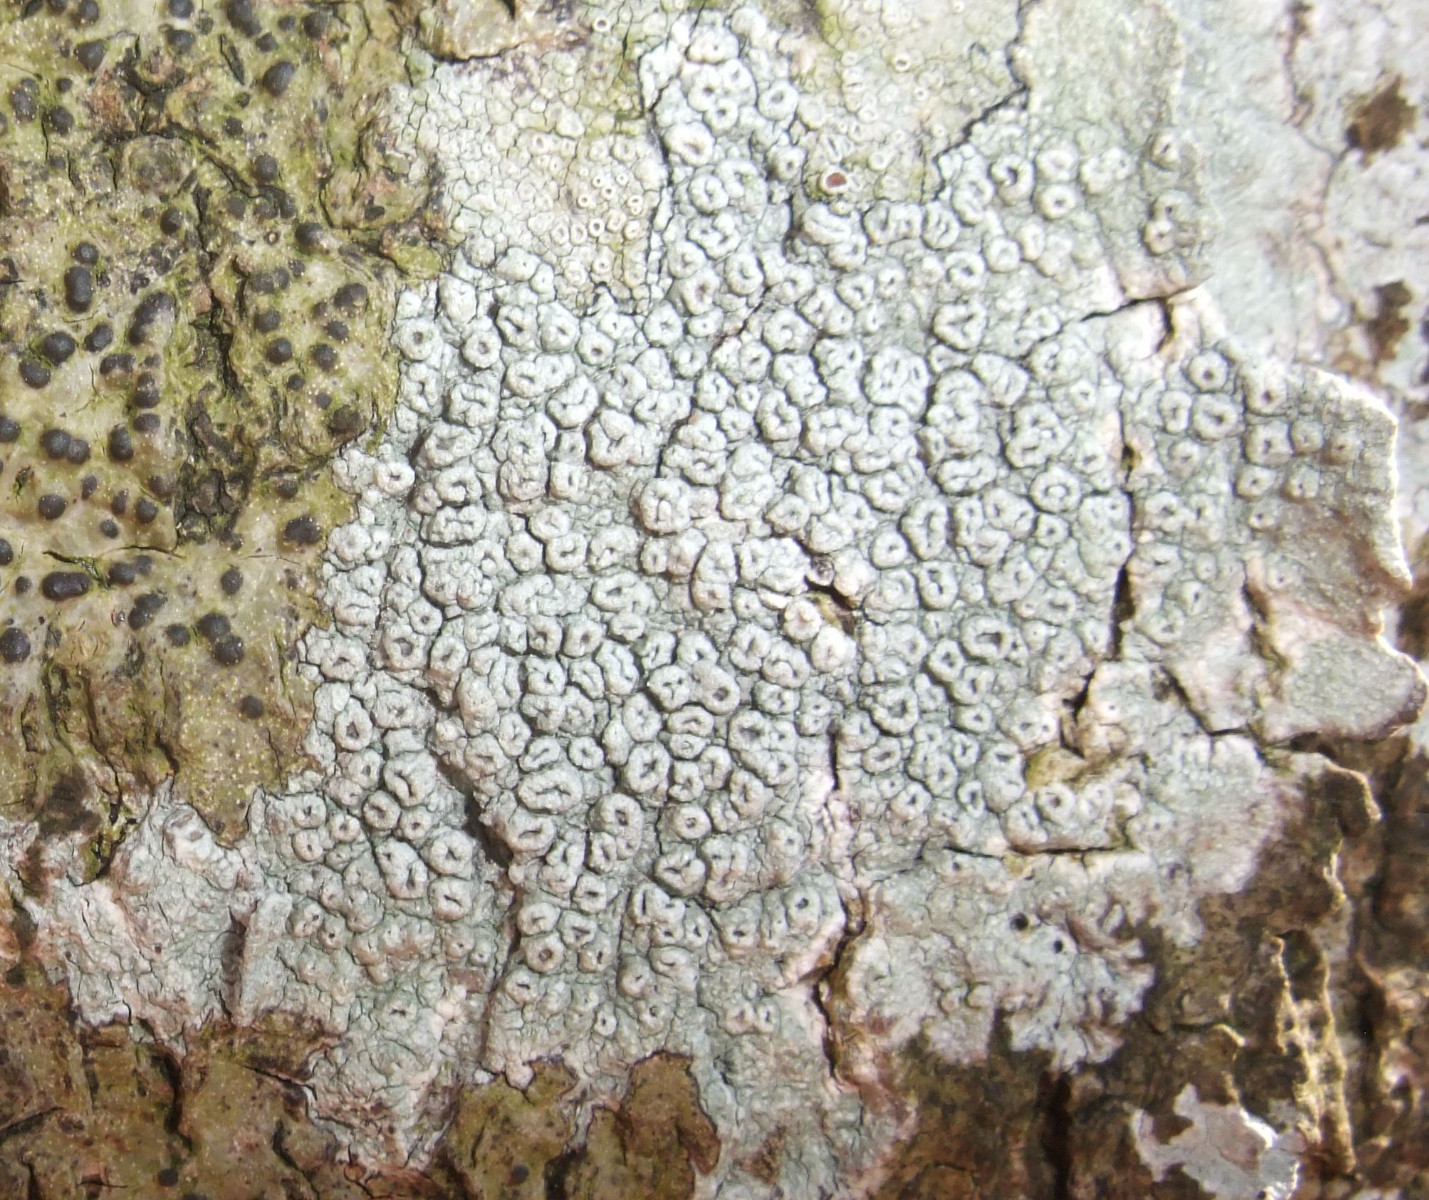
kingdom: Fungi
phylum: Ascomycota
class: Lecanoromycetes
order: Pertusariales
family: Pertusariaceae
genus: Pertusaria
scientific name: Pertusaria hymenea
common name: åben prikvortelav
